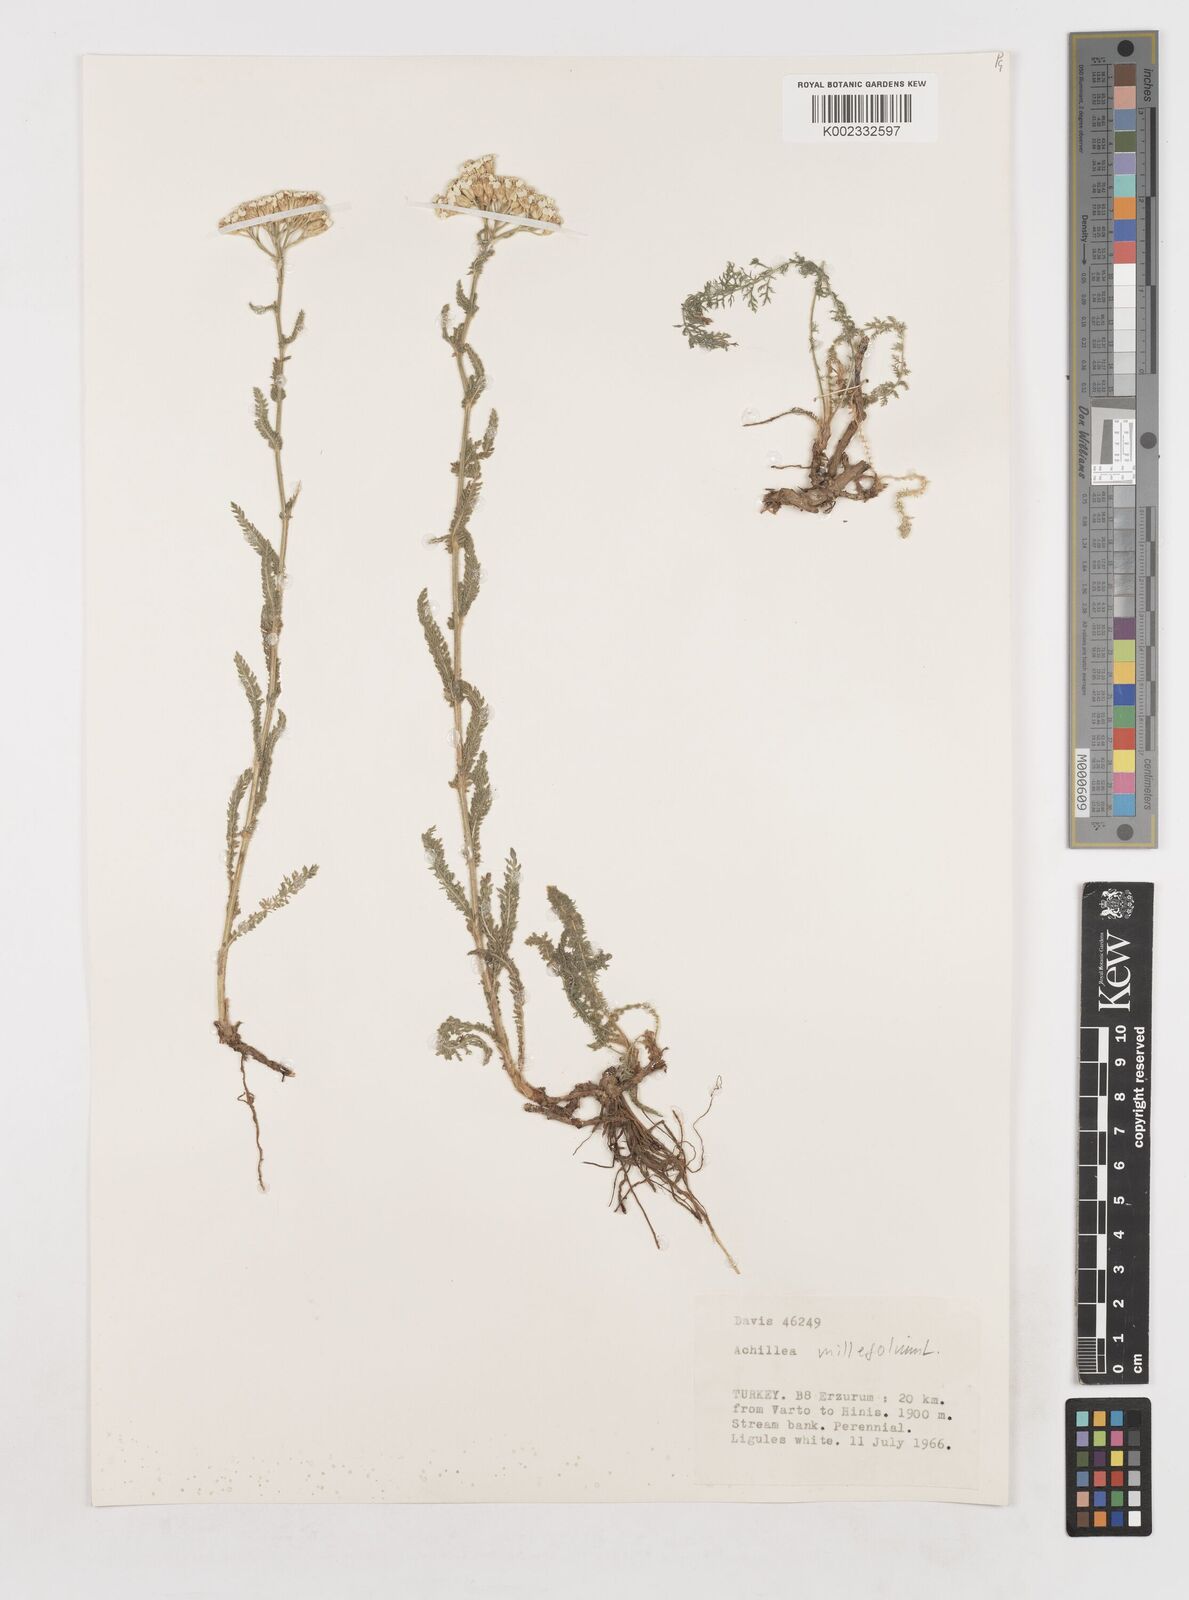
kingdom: Plantae
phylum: Tracheophyta
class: Magnoliopsida
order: Asterales
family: Asteraceae
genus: Achillea
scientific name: Achillea millefolium
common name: Yarrow
